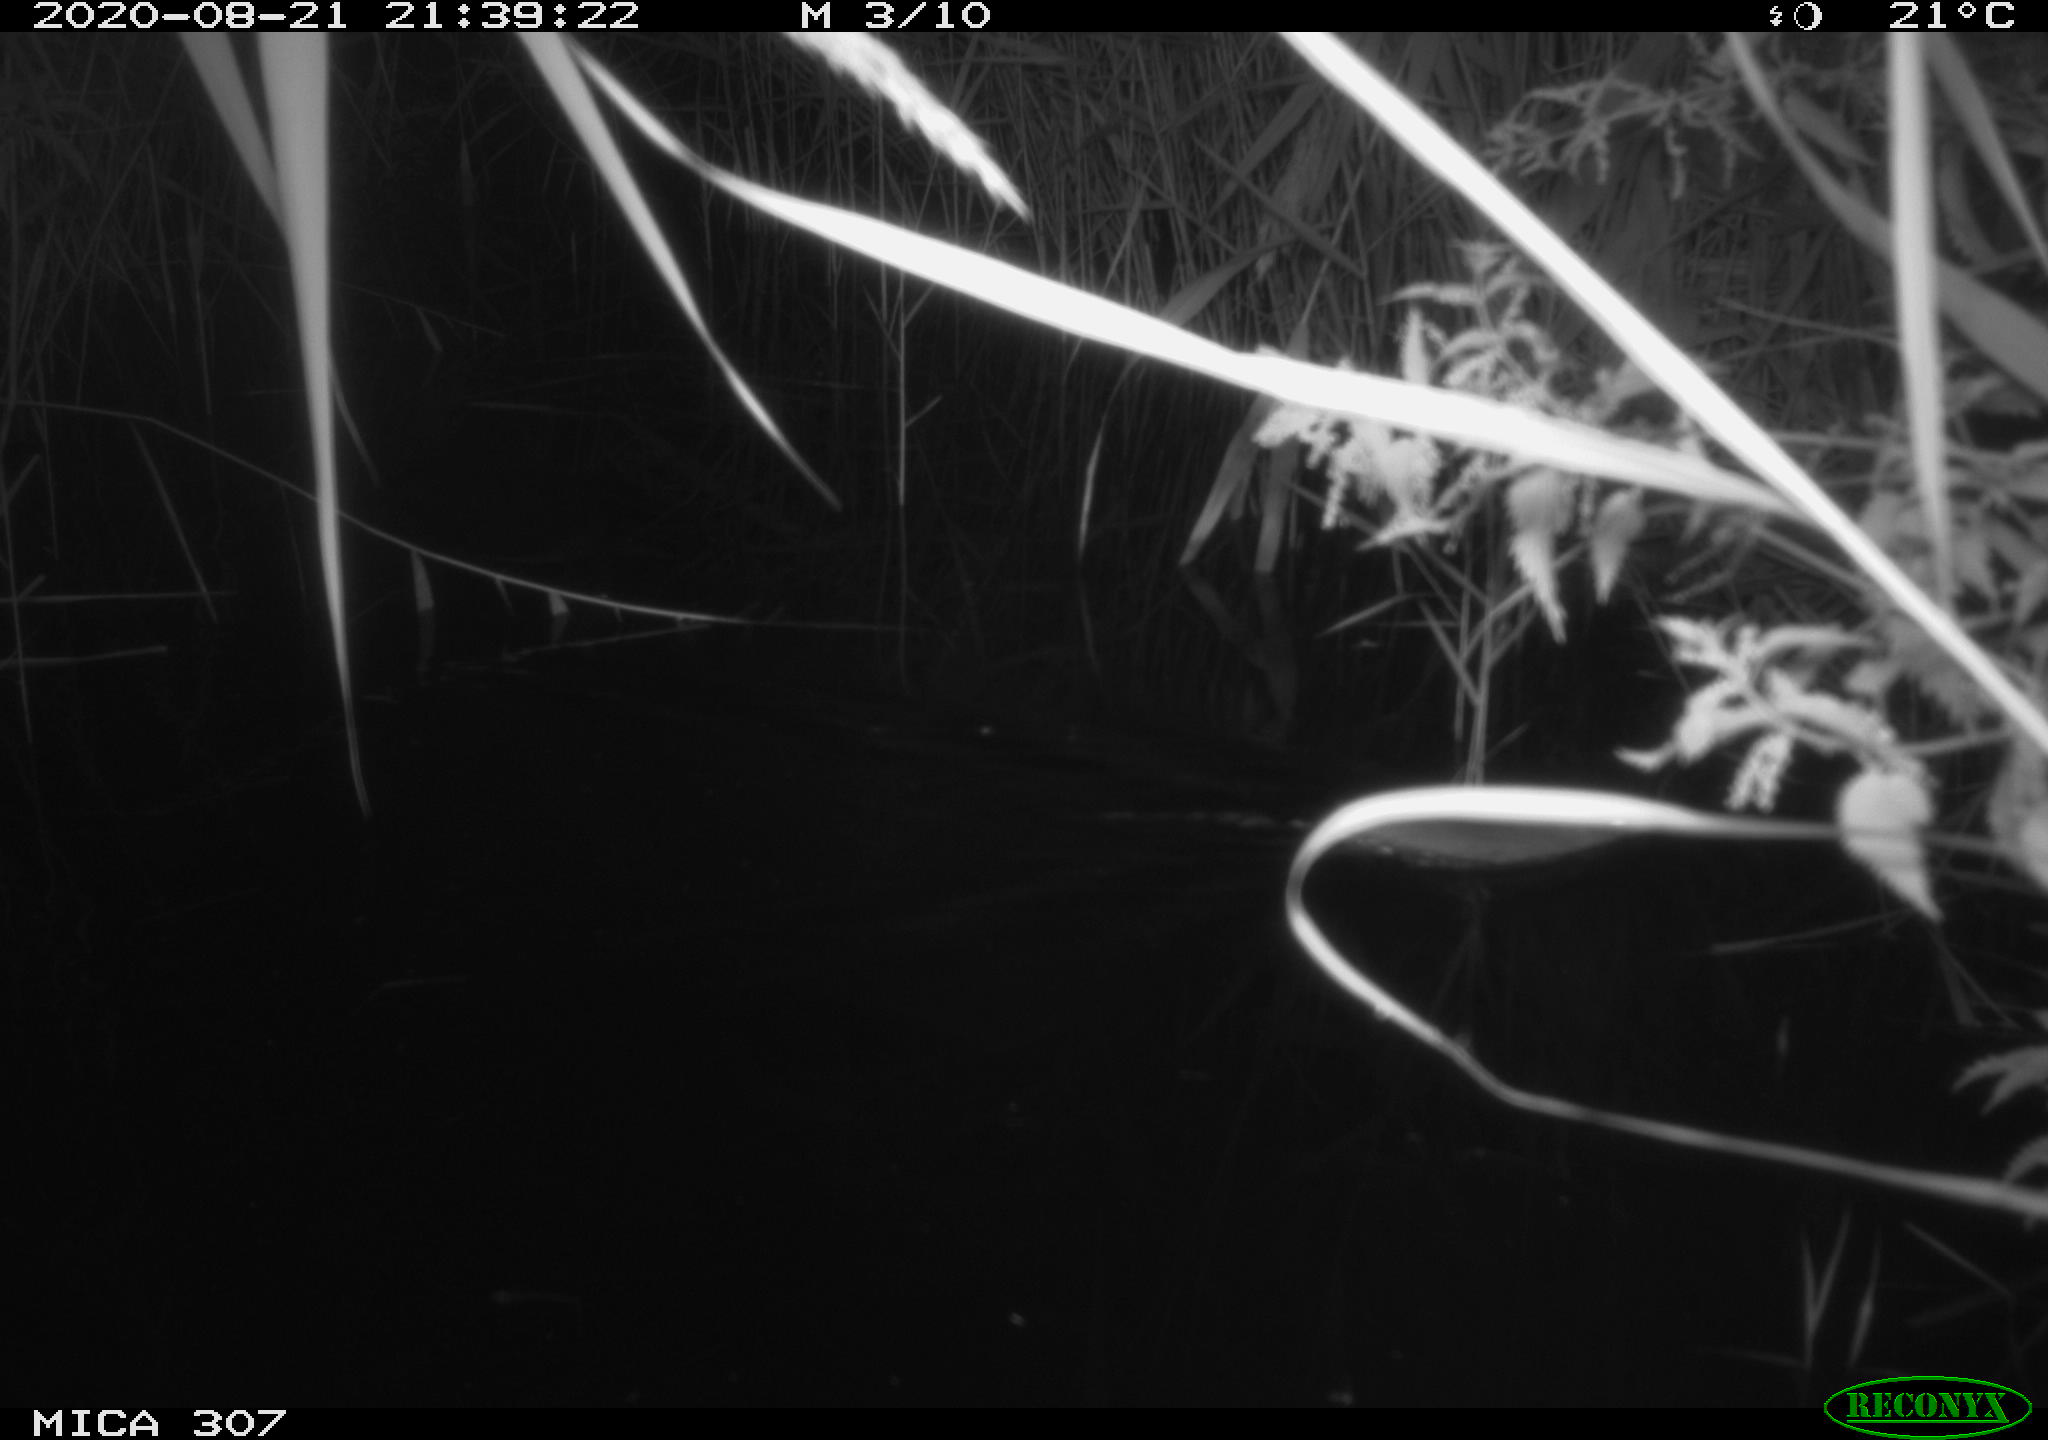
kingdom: Animalia
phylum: Chordata
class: Mammalia
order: Rodentia
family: Muridae
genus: Rattus
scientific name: Rattus norvegicus
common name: Brown rat
